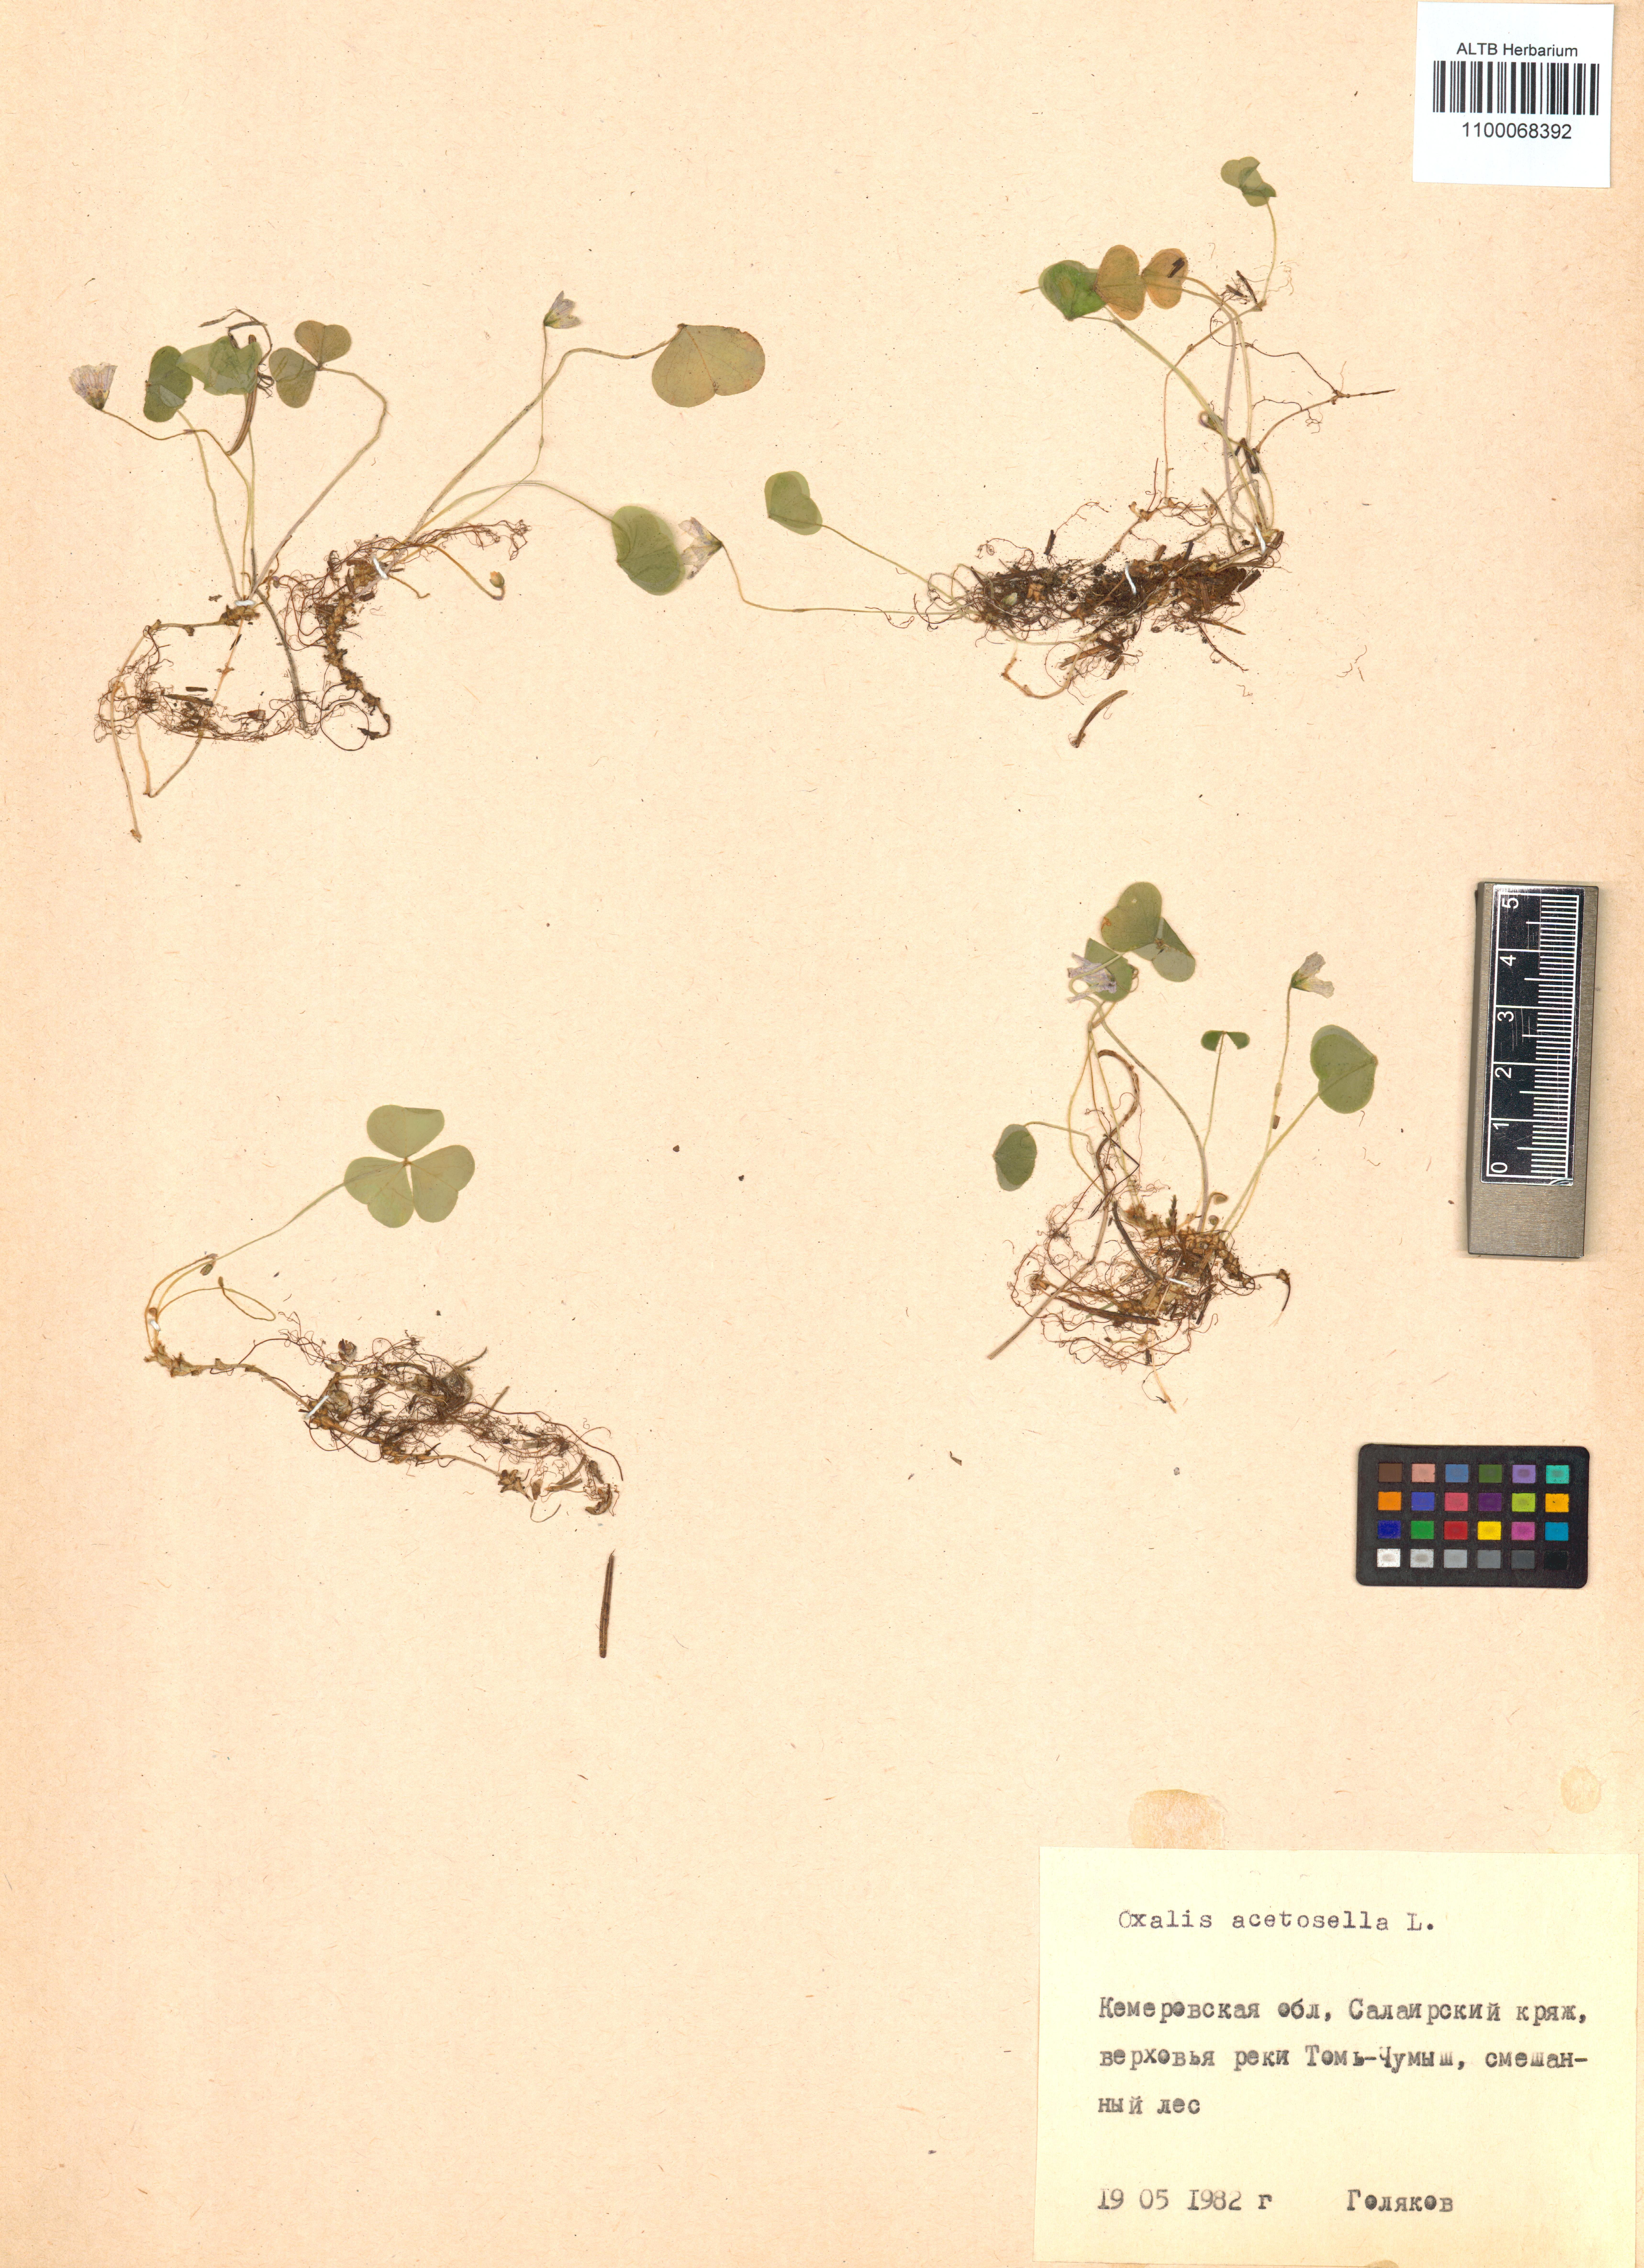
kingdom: Plantae
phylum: Tracheophyta
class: Magnoliopsida
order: Oxalidales
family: Oxalidaceae
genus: Oxalis
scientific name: Oxalis acetosella
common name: Wood-sorrel
